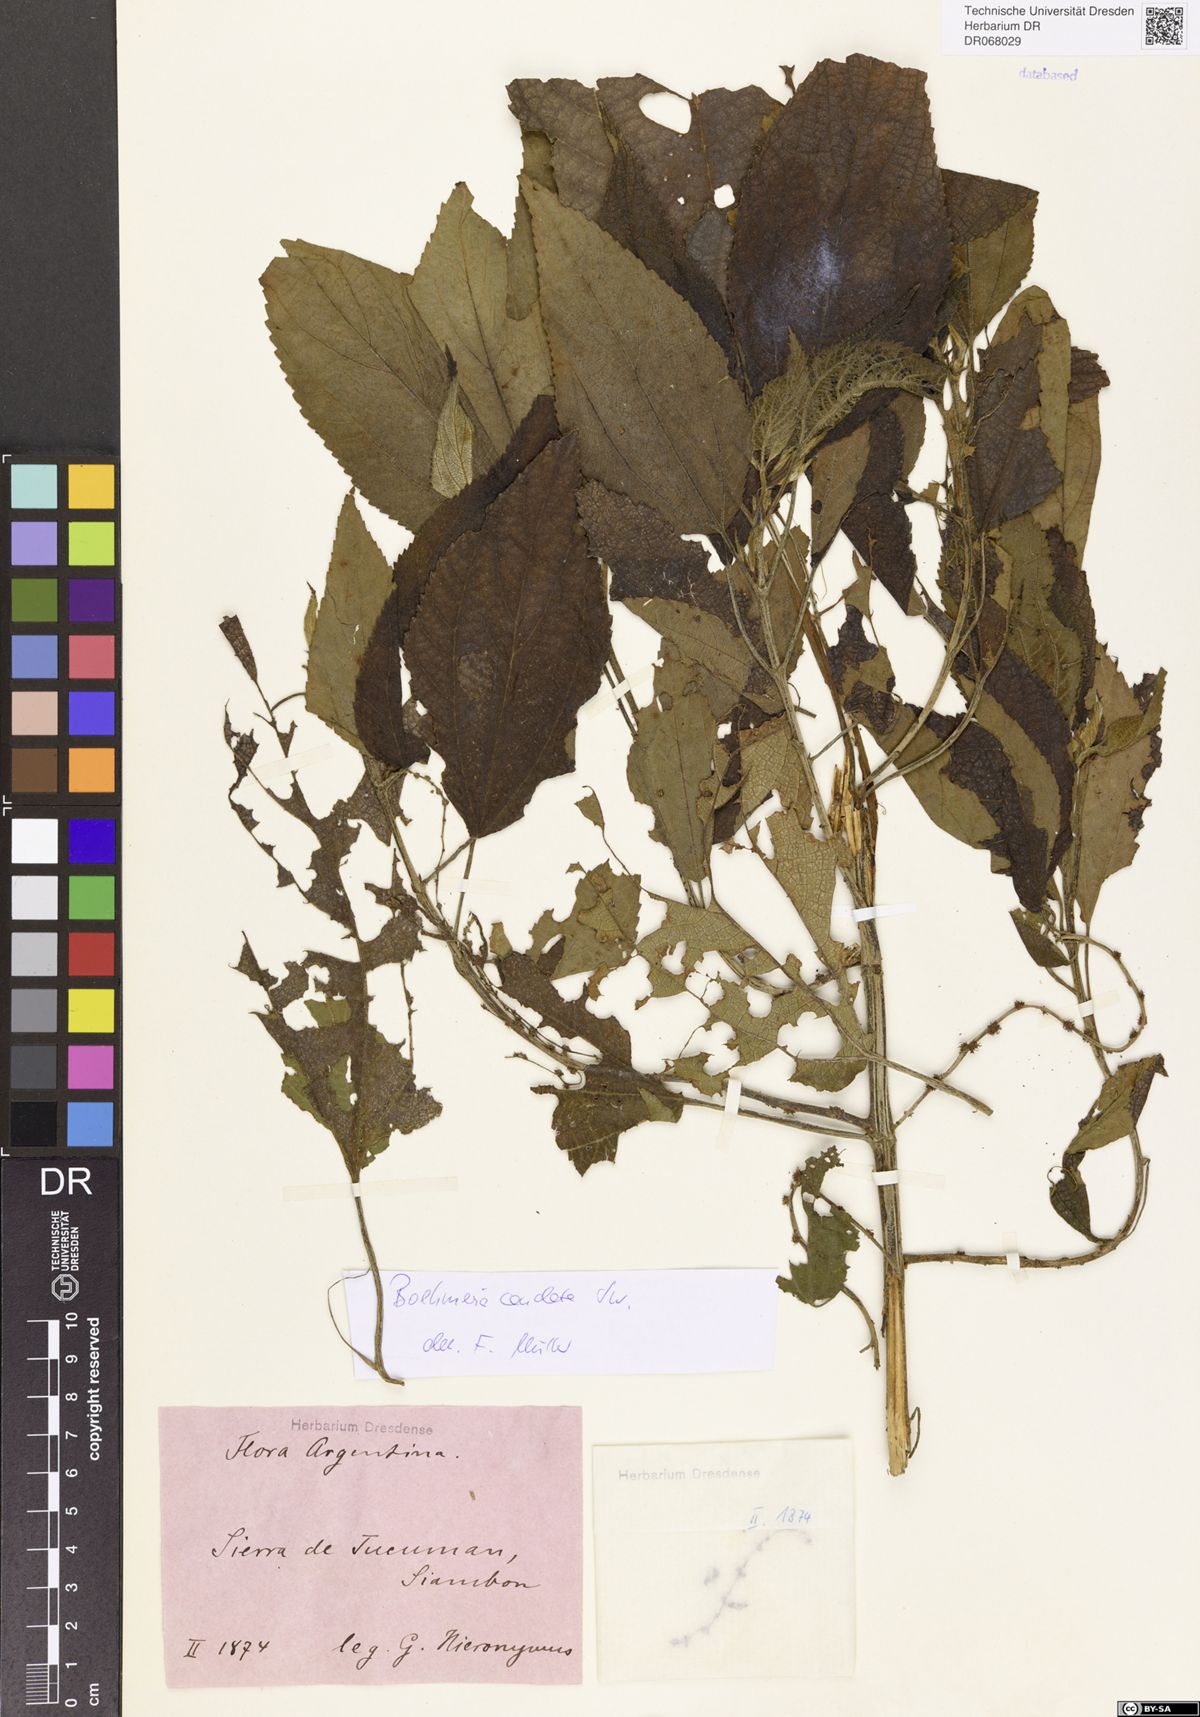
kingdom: Plantae
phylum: Tracheophyta
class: Magnoliopsida
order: Rosales
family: Urticaceae
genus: Boehmeria
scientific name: Boehmeria caudata
